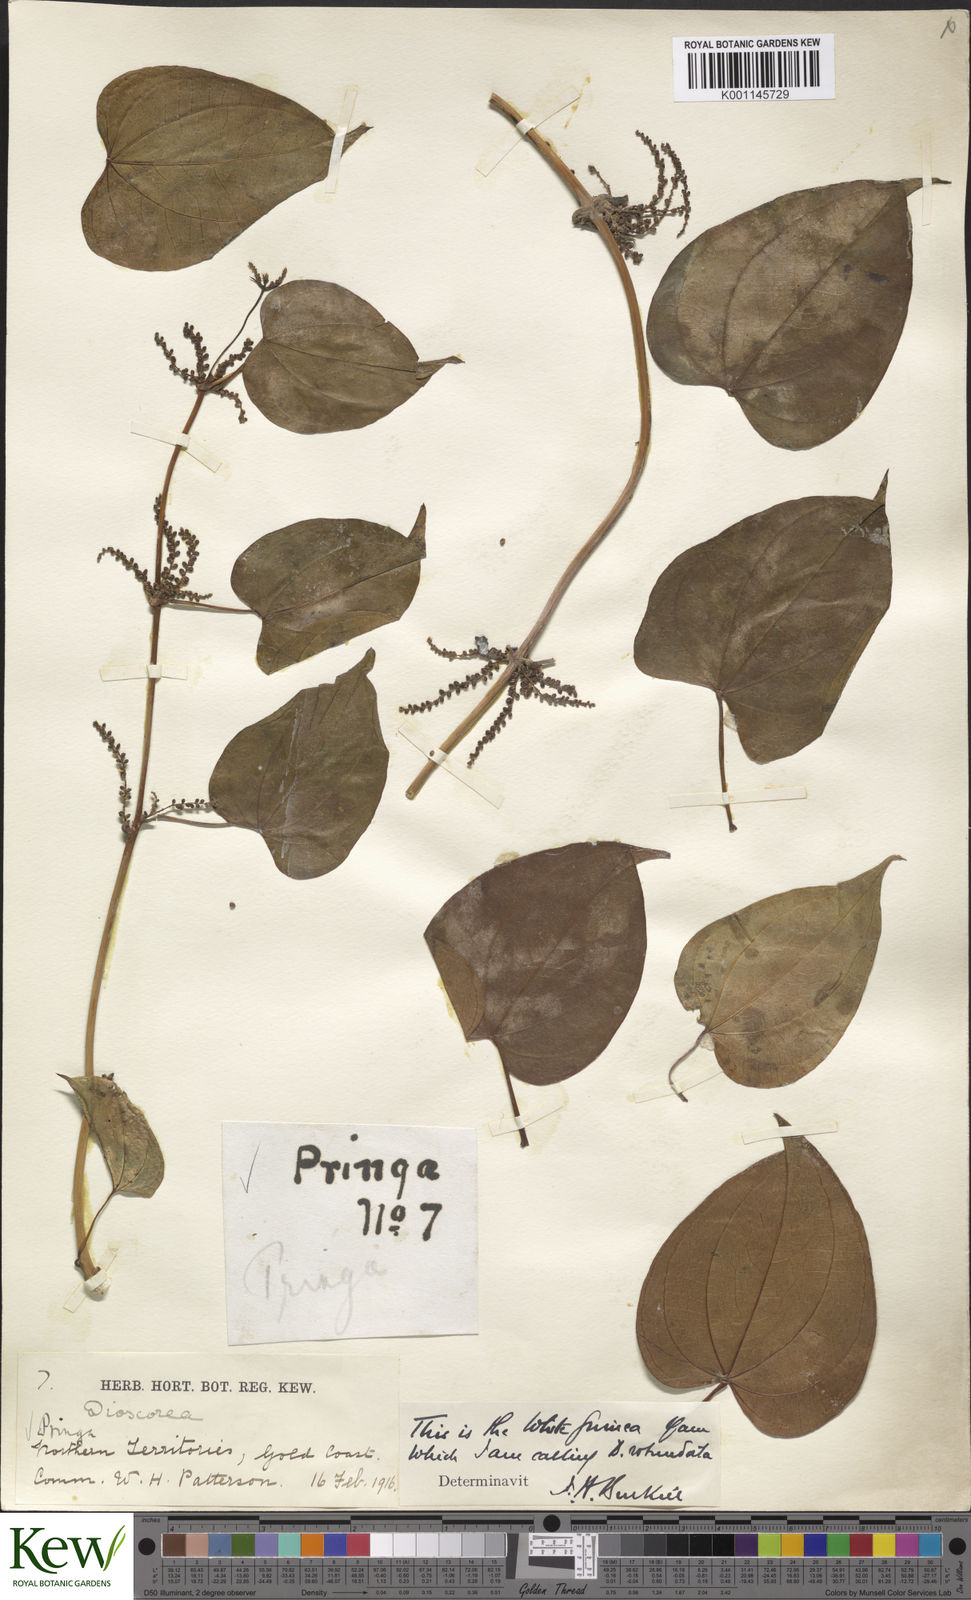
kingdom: Plantae
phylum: Tracheophyta
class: Liliopsida
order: Dioscoreales
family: Dioscoreaceae
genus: Dioscorea
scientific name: Dioscorea cayenensis
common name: Attoto yam
